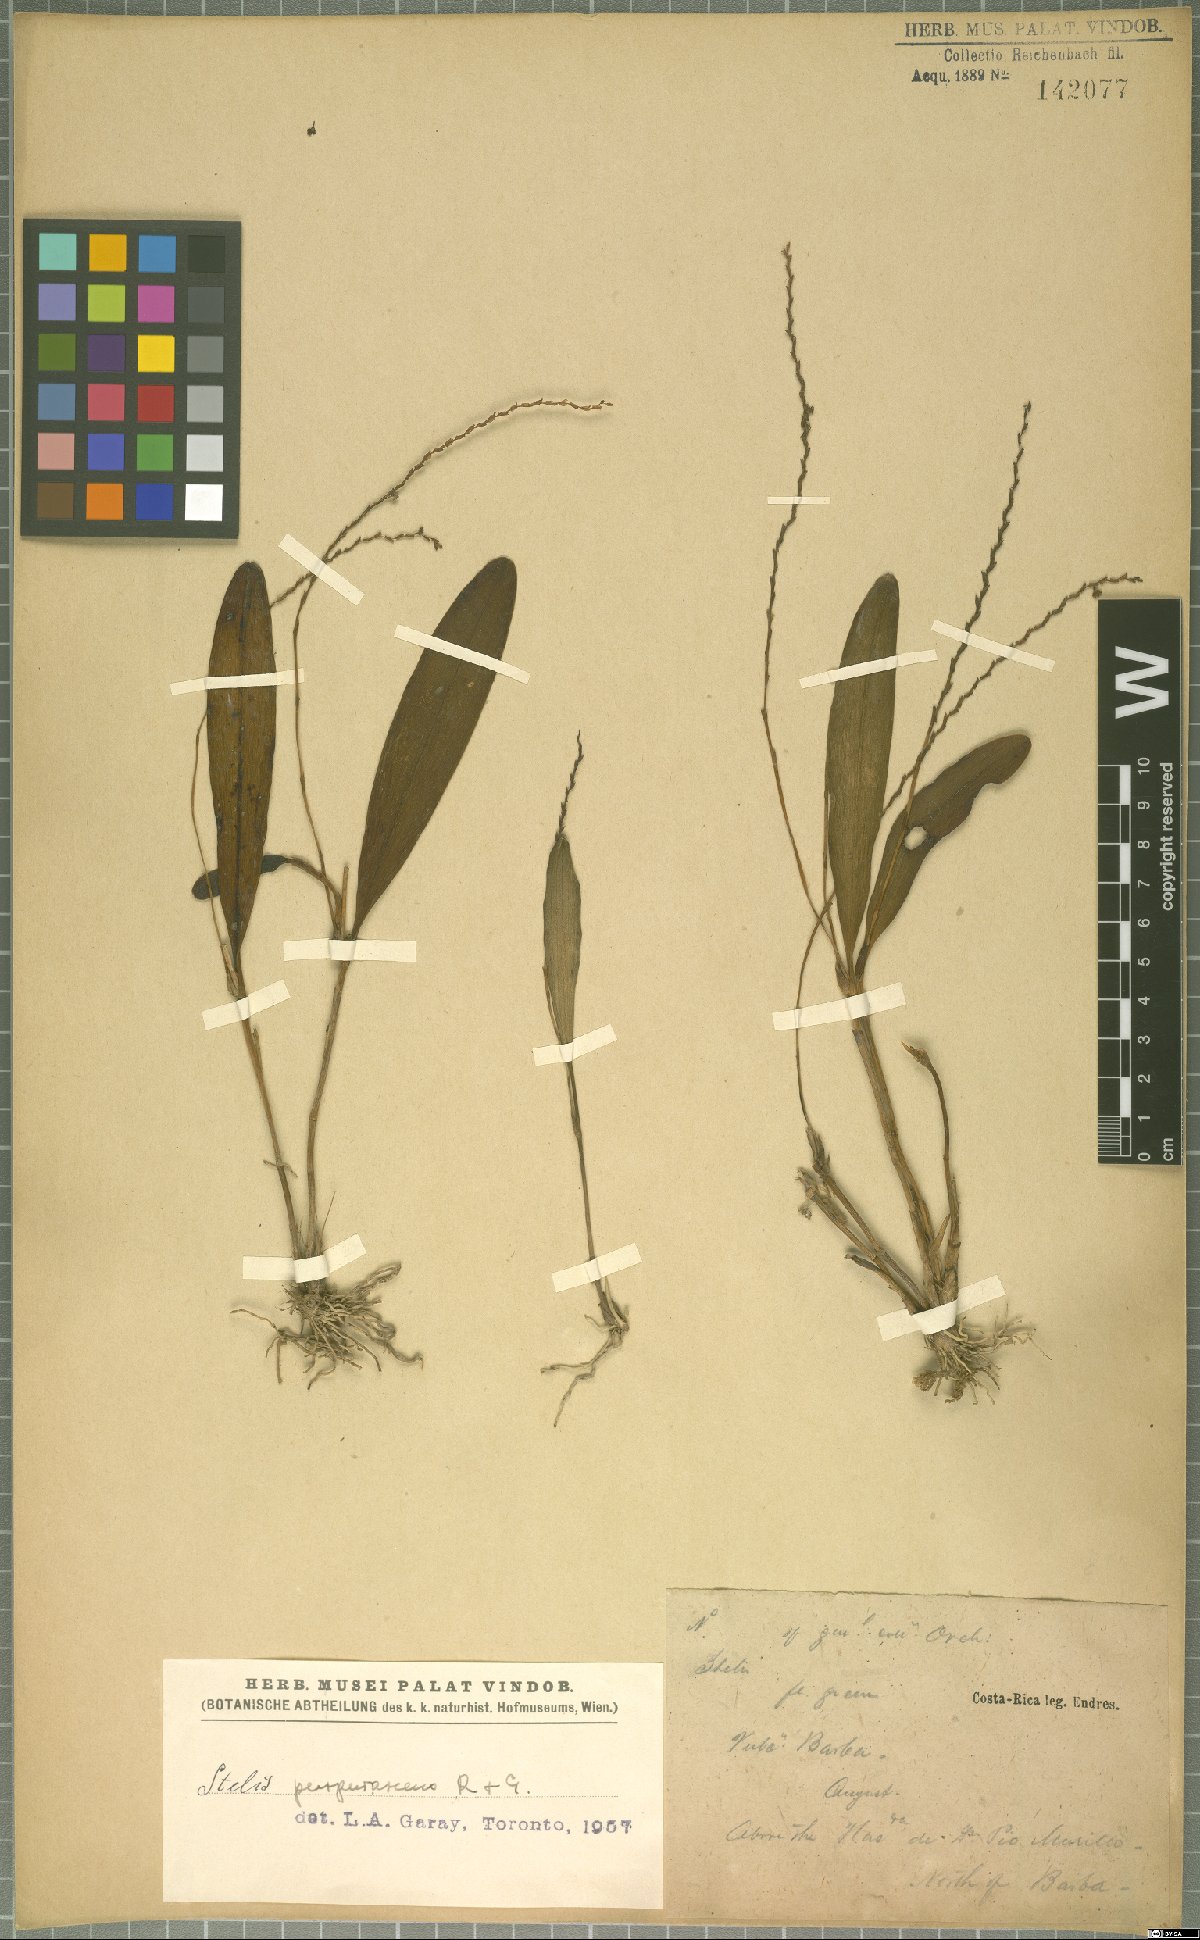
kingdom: Plantae
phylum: Tracheophyta
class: Liliopsida
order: Asparagales
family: Orchidaceae
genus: Stelis
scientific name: Stelis purpurascens
